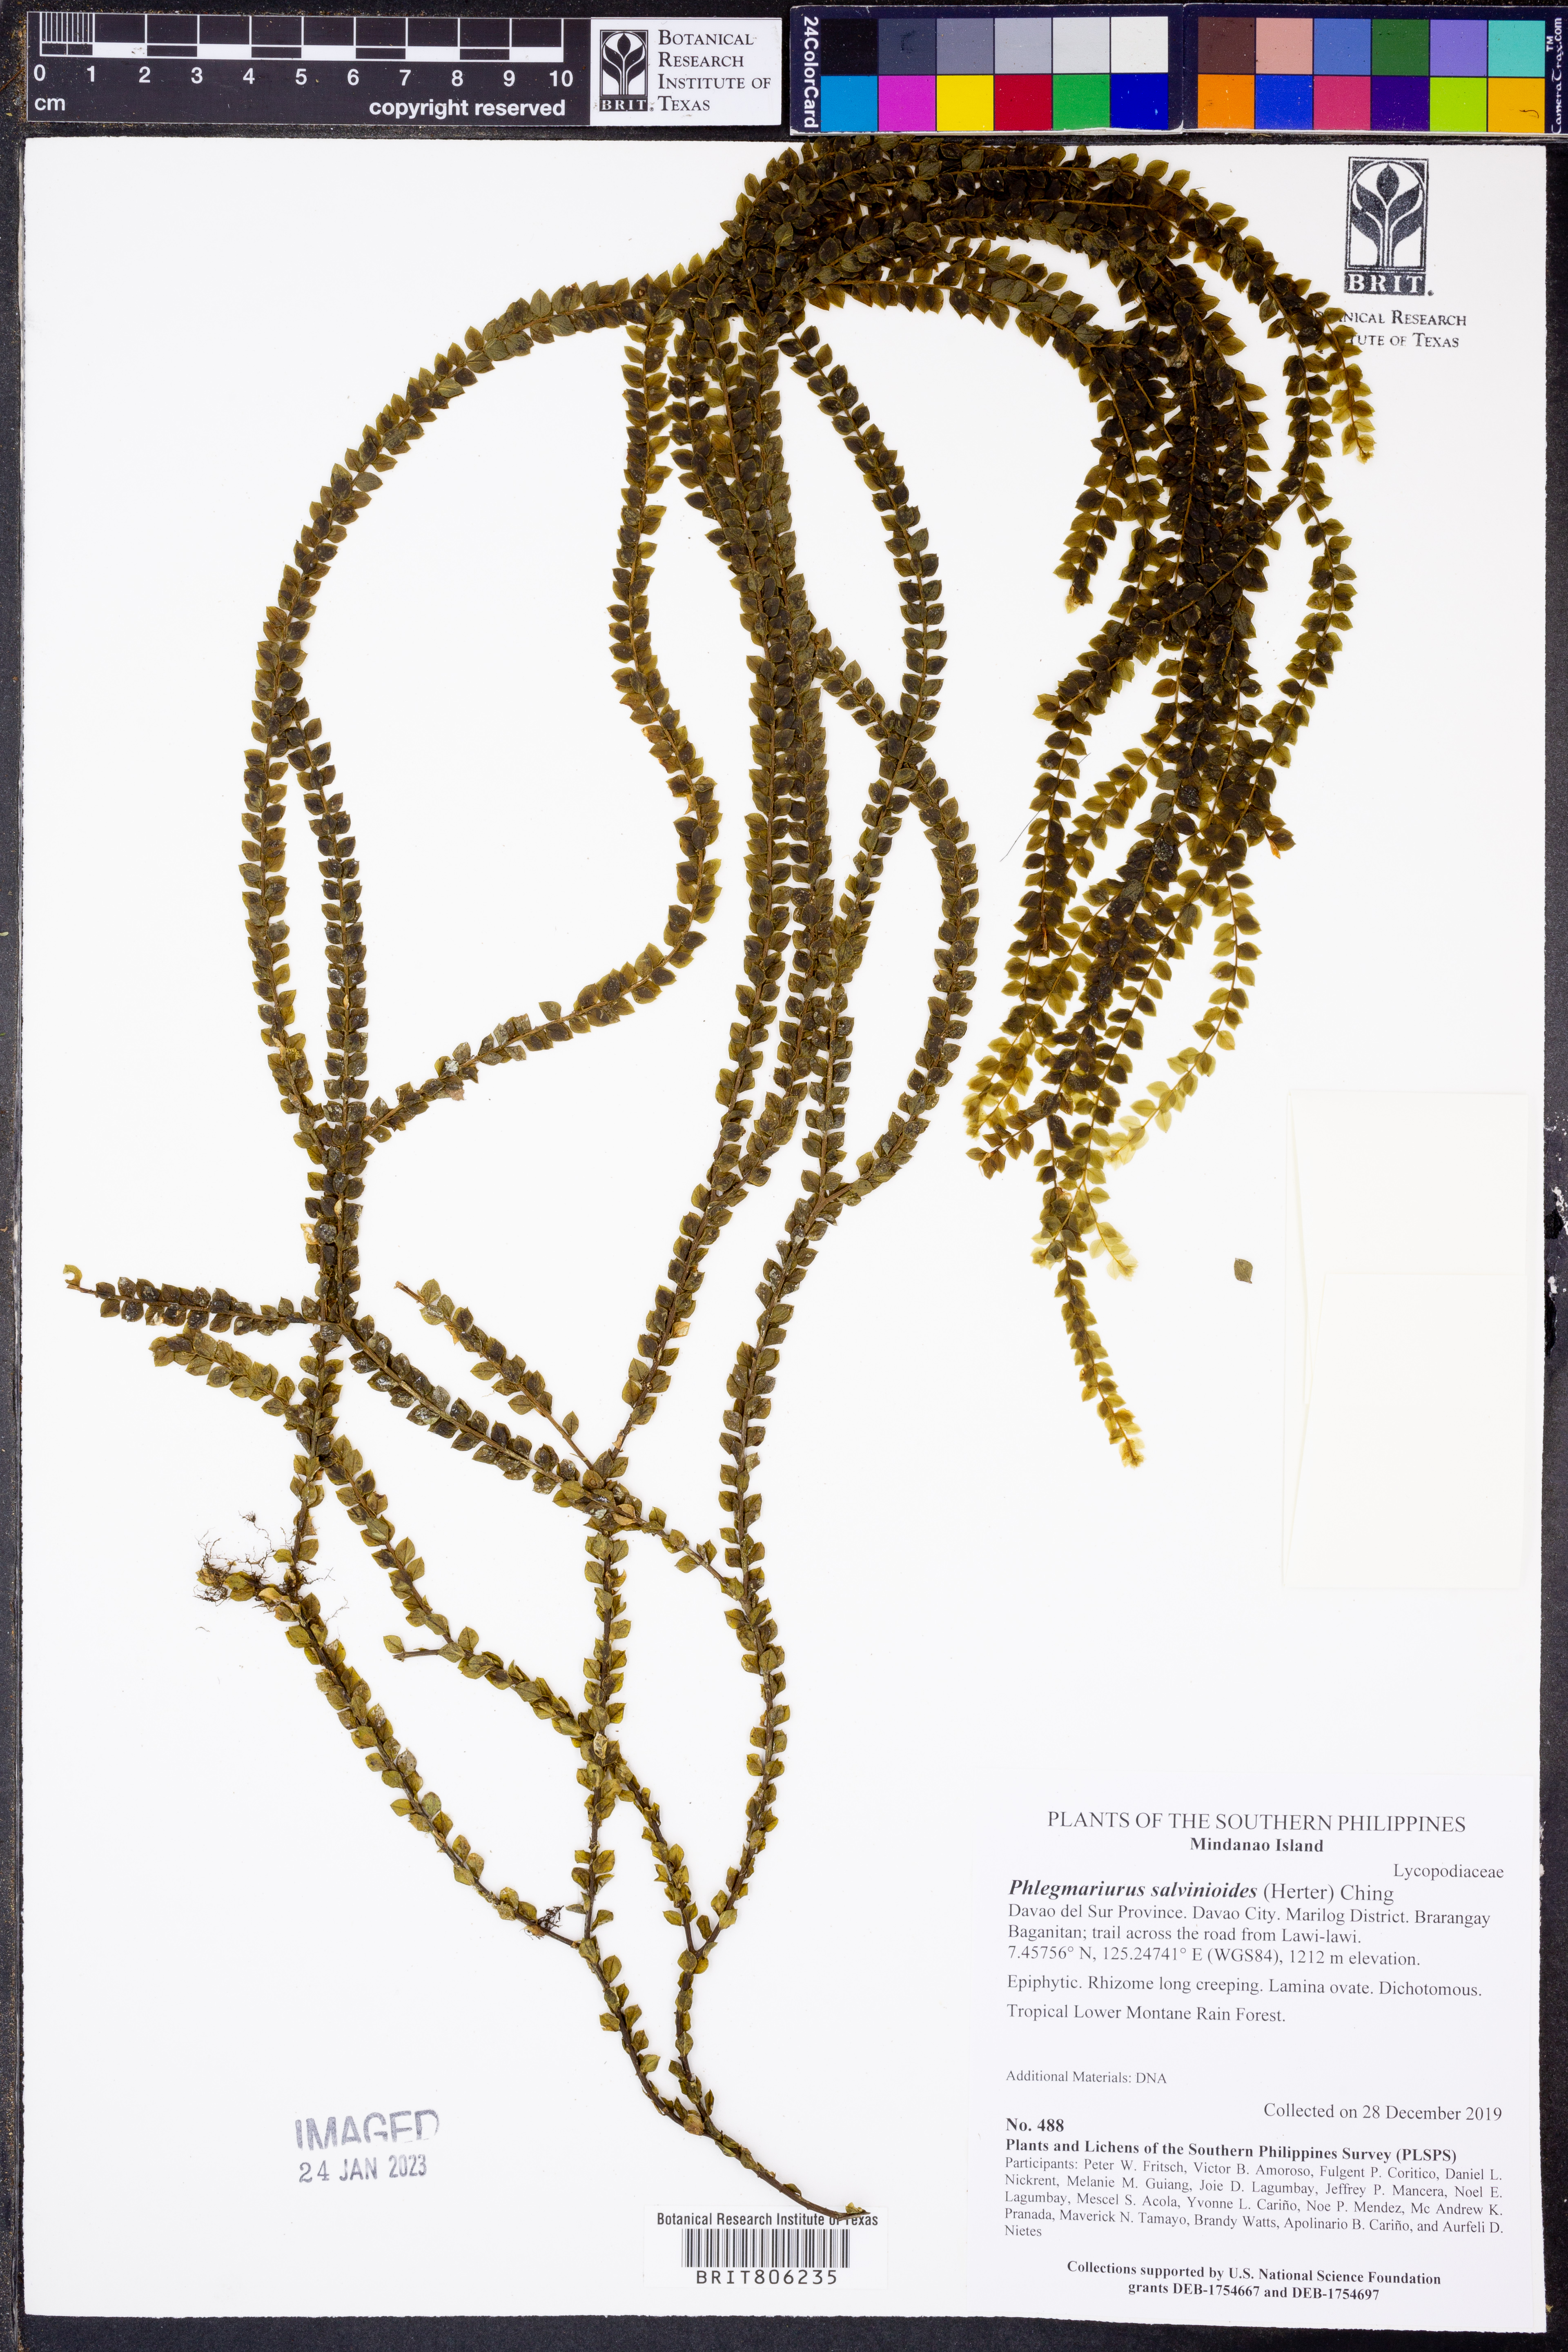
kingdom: Plantae
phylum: Tracheophyta
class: Lycopodiopsida
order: Lycopodiales
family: Lycopodiaceae
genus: Phlegmariurus
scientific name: Phlegmariurus salvinioides
